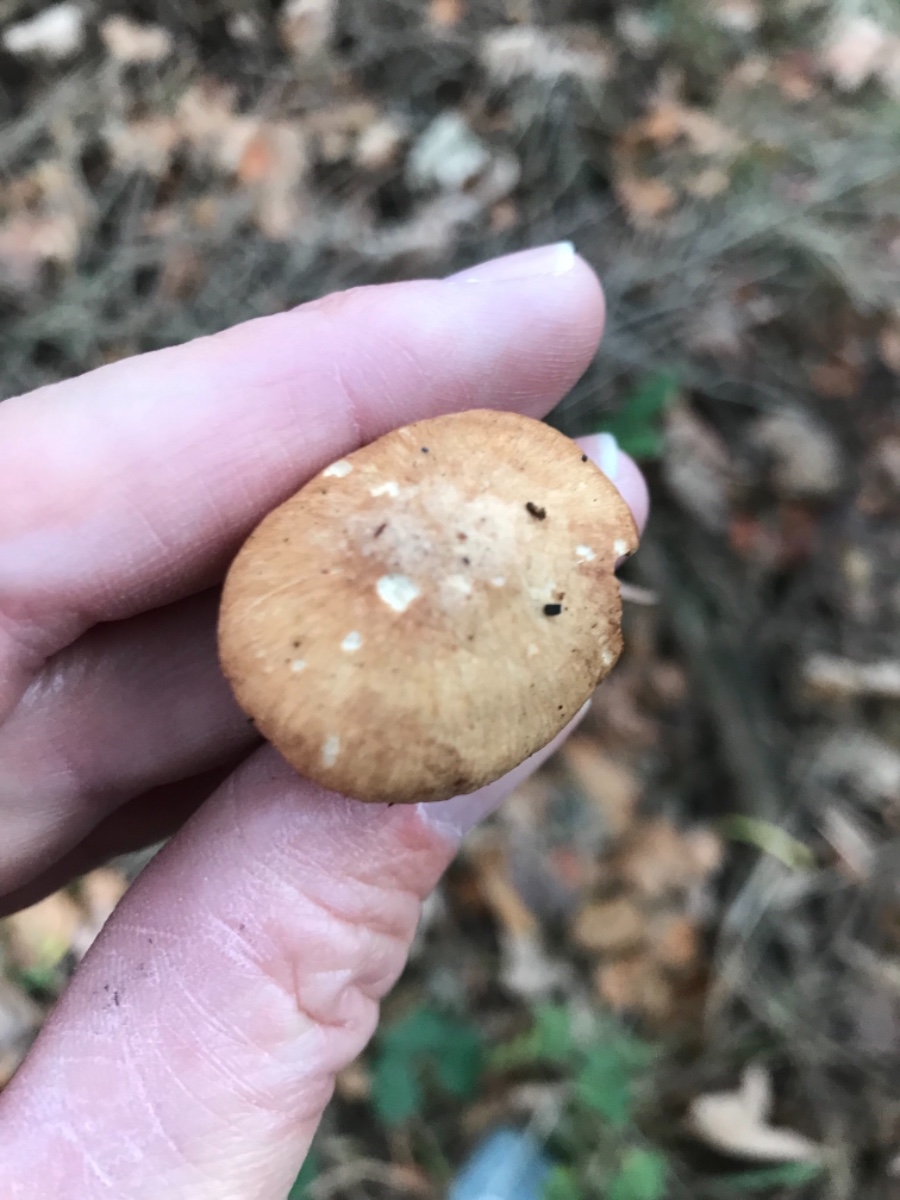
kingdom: Fungi
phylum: Basidiomycota
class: Agaricomycetes
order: Agaricales
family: Omphalotaceae
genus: Collybiopsis
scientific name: Collybiopsis peronata
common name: bestøvlet fladhat
